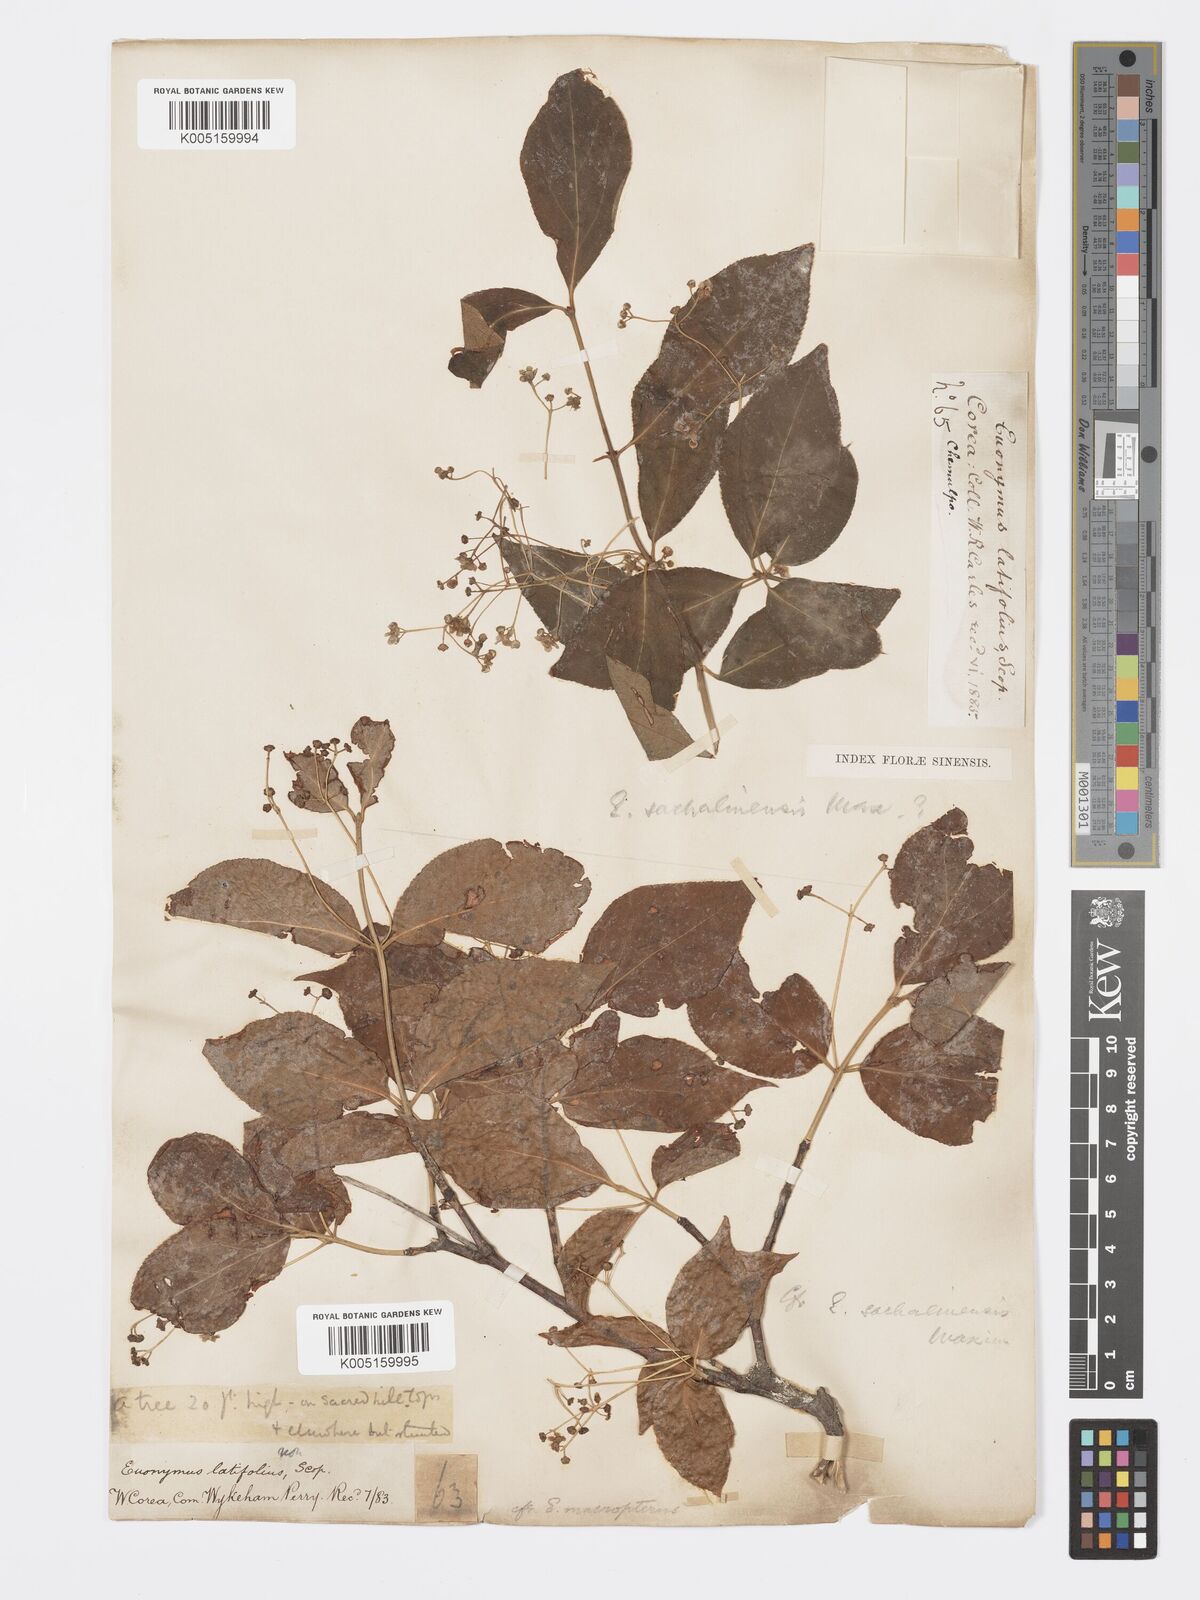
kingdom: Plantae
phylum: Tracheophyta
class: Magnoliopsida
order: Celastrales
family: Celastraceae
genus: Euonymus
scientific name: Euonymus sachalinensis
